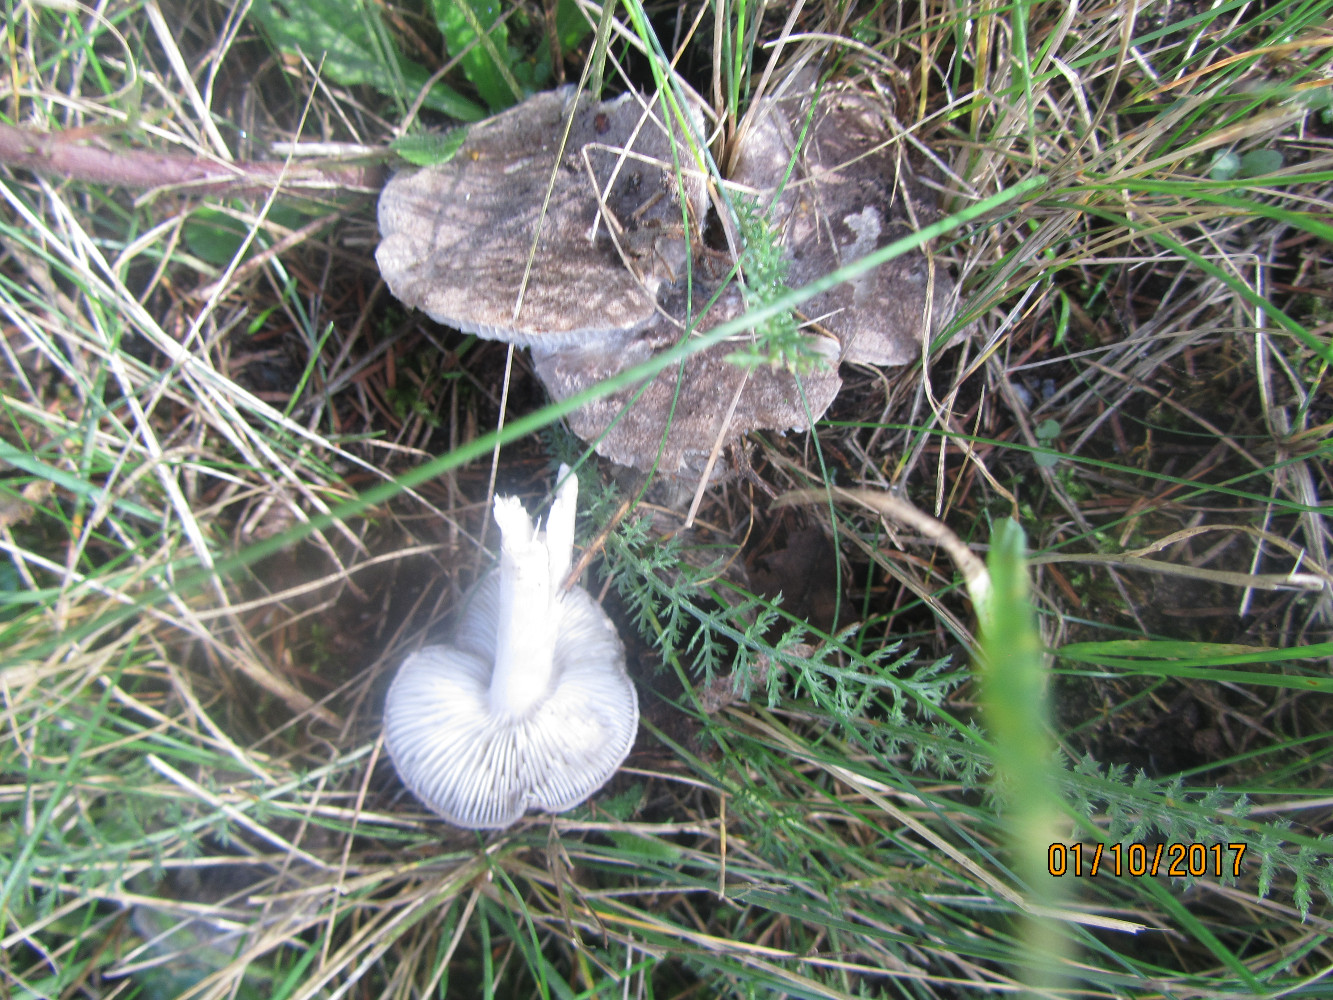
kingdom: Fungi
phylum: Basidiomycota
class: Agaricomycetes
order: Agaricales
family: Tricholomataceae
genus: Tricholoma
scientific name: Tricholoma terreum
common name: jordfarvet ridderhat
